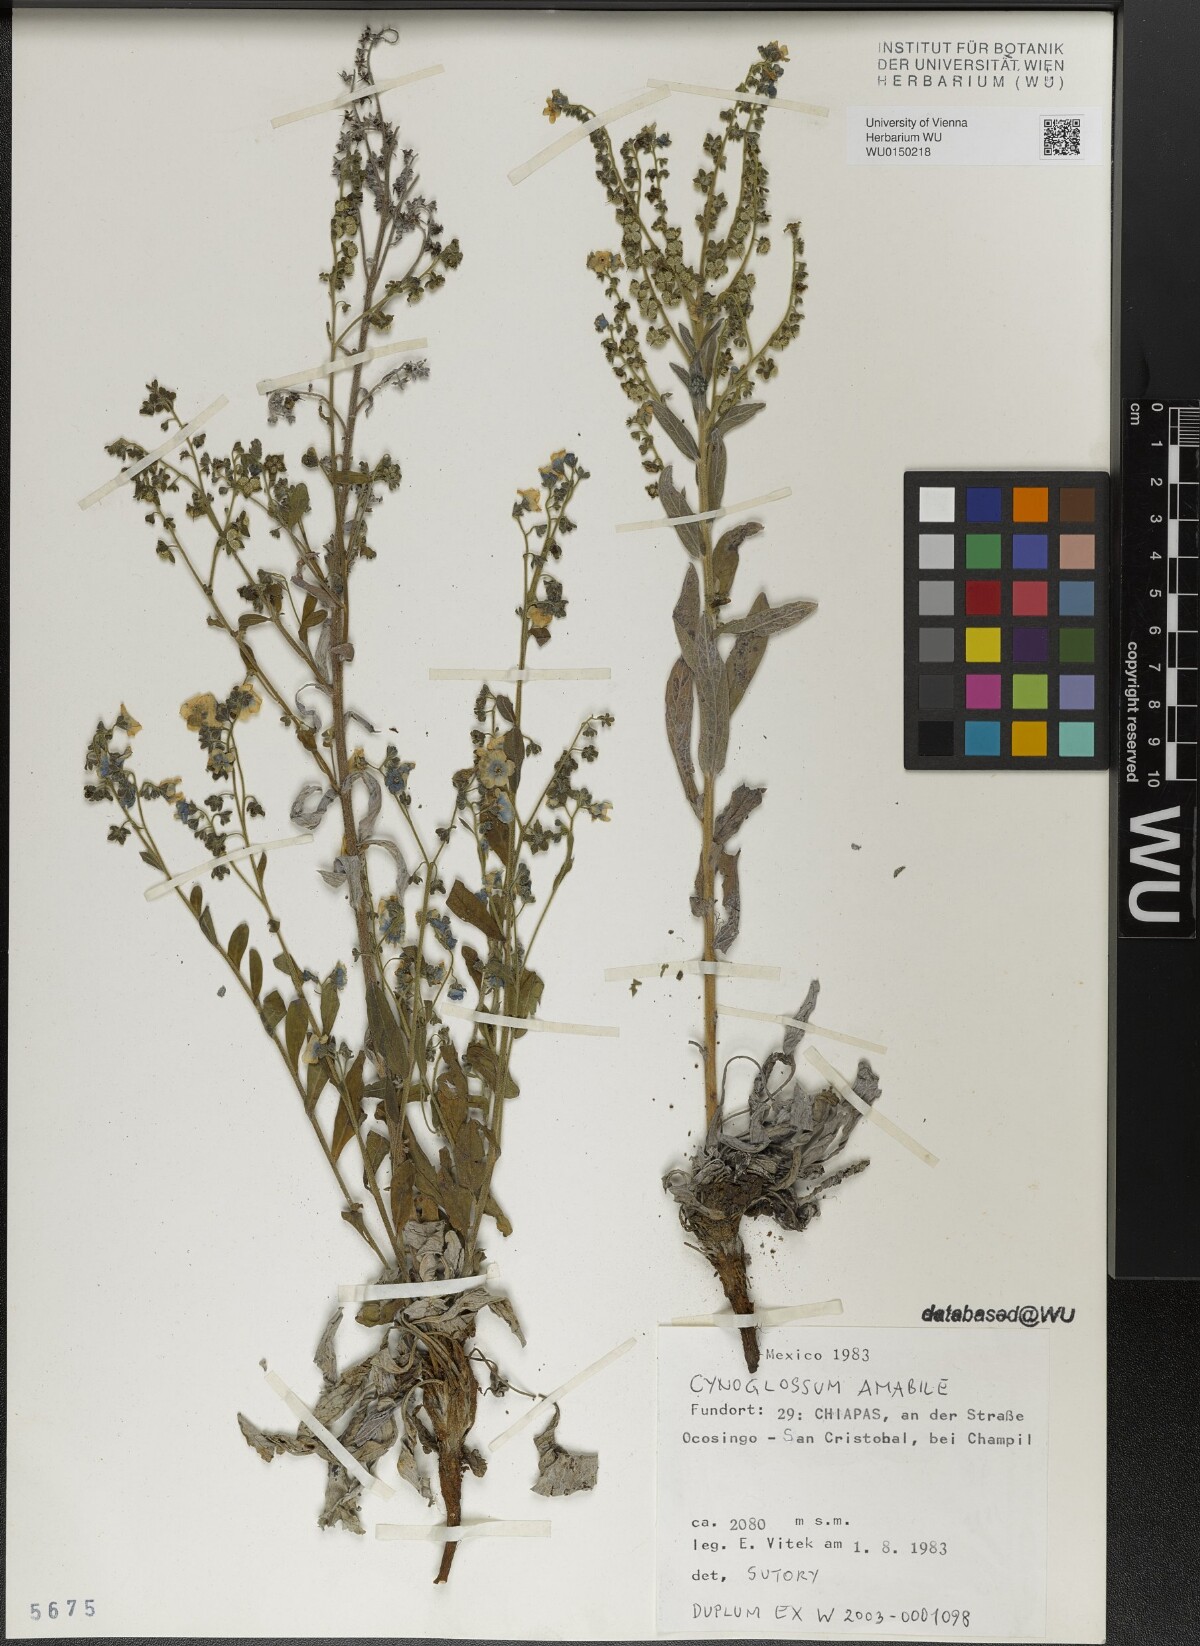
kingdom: Plantae
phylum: Tracheophyta
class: Magnoliopsida
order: Boraginales
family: Boraginaceae
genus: Cynoglossum
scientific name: Cynoglossum amabile
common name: Chinese hound's tongue
